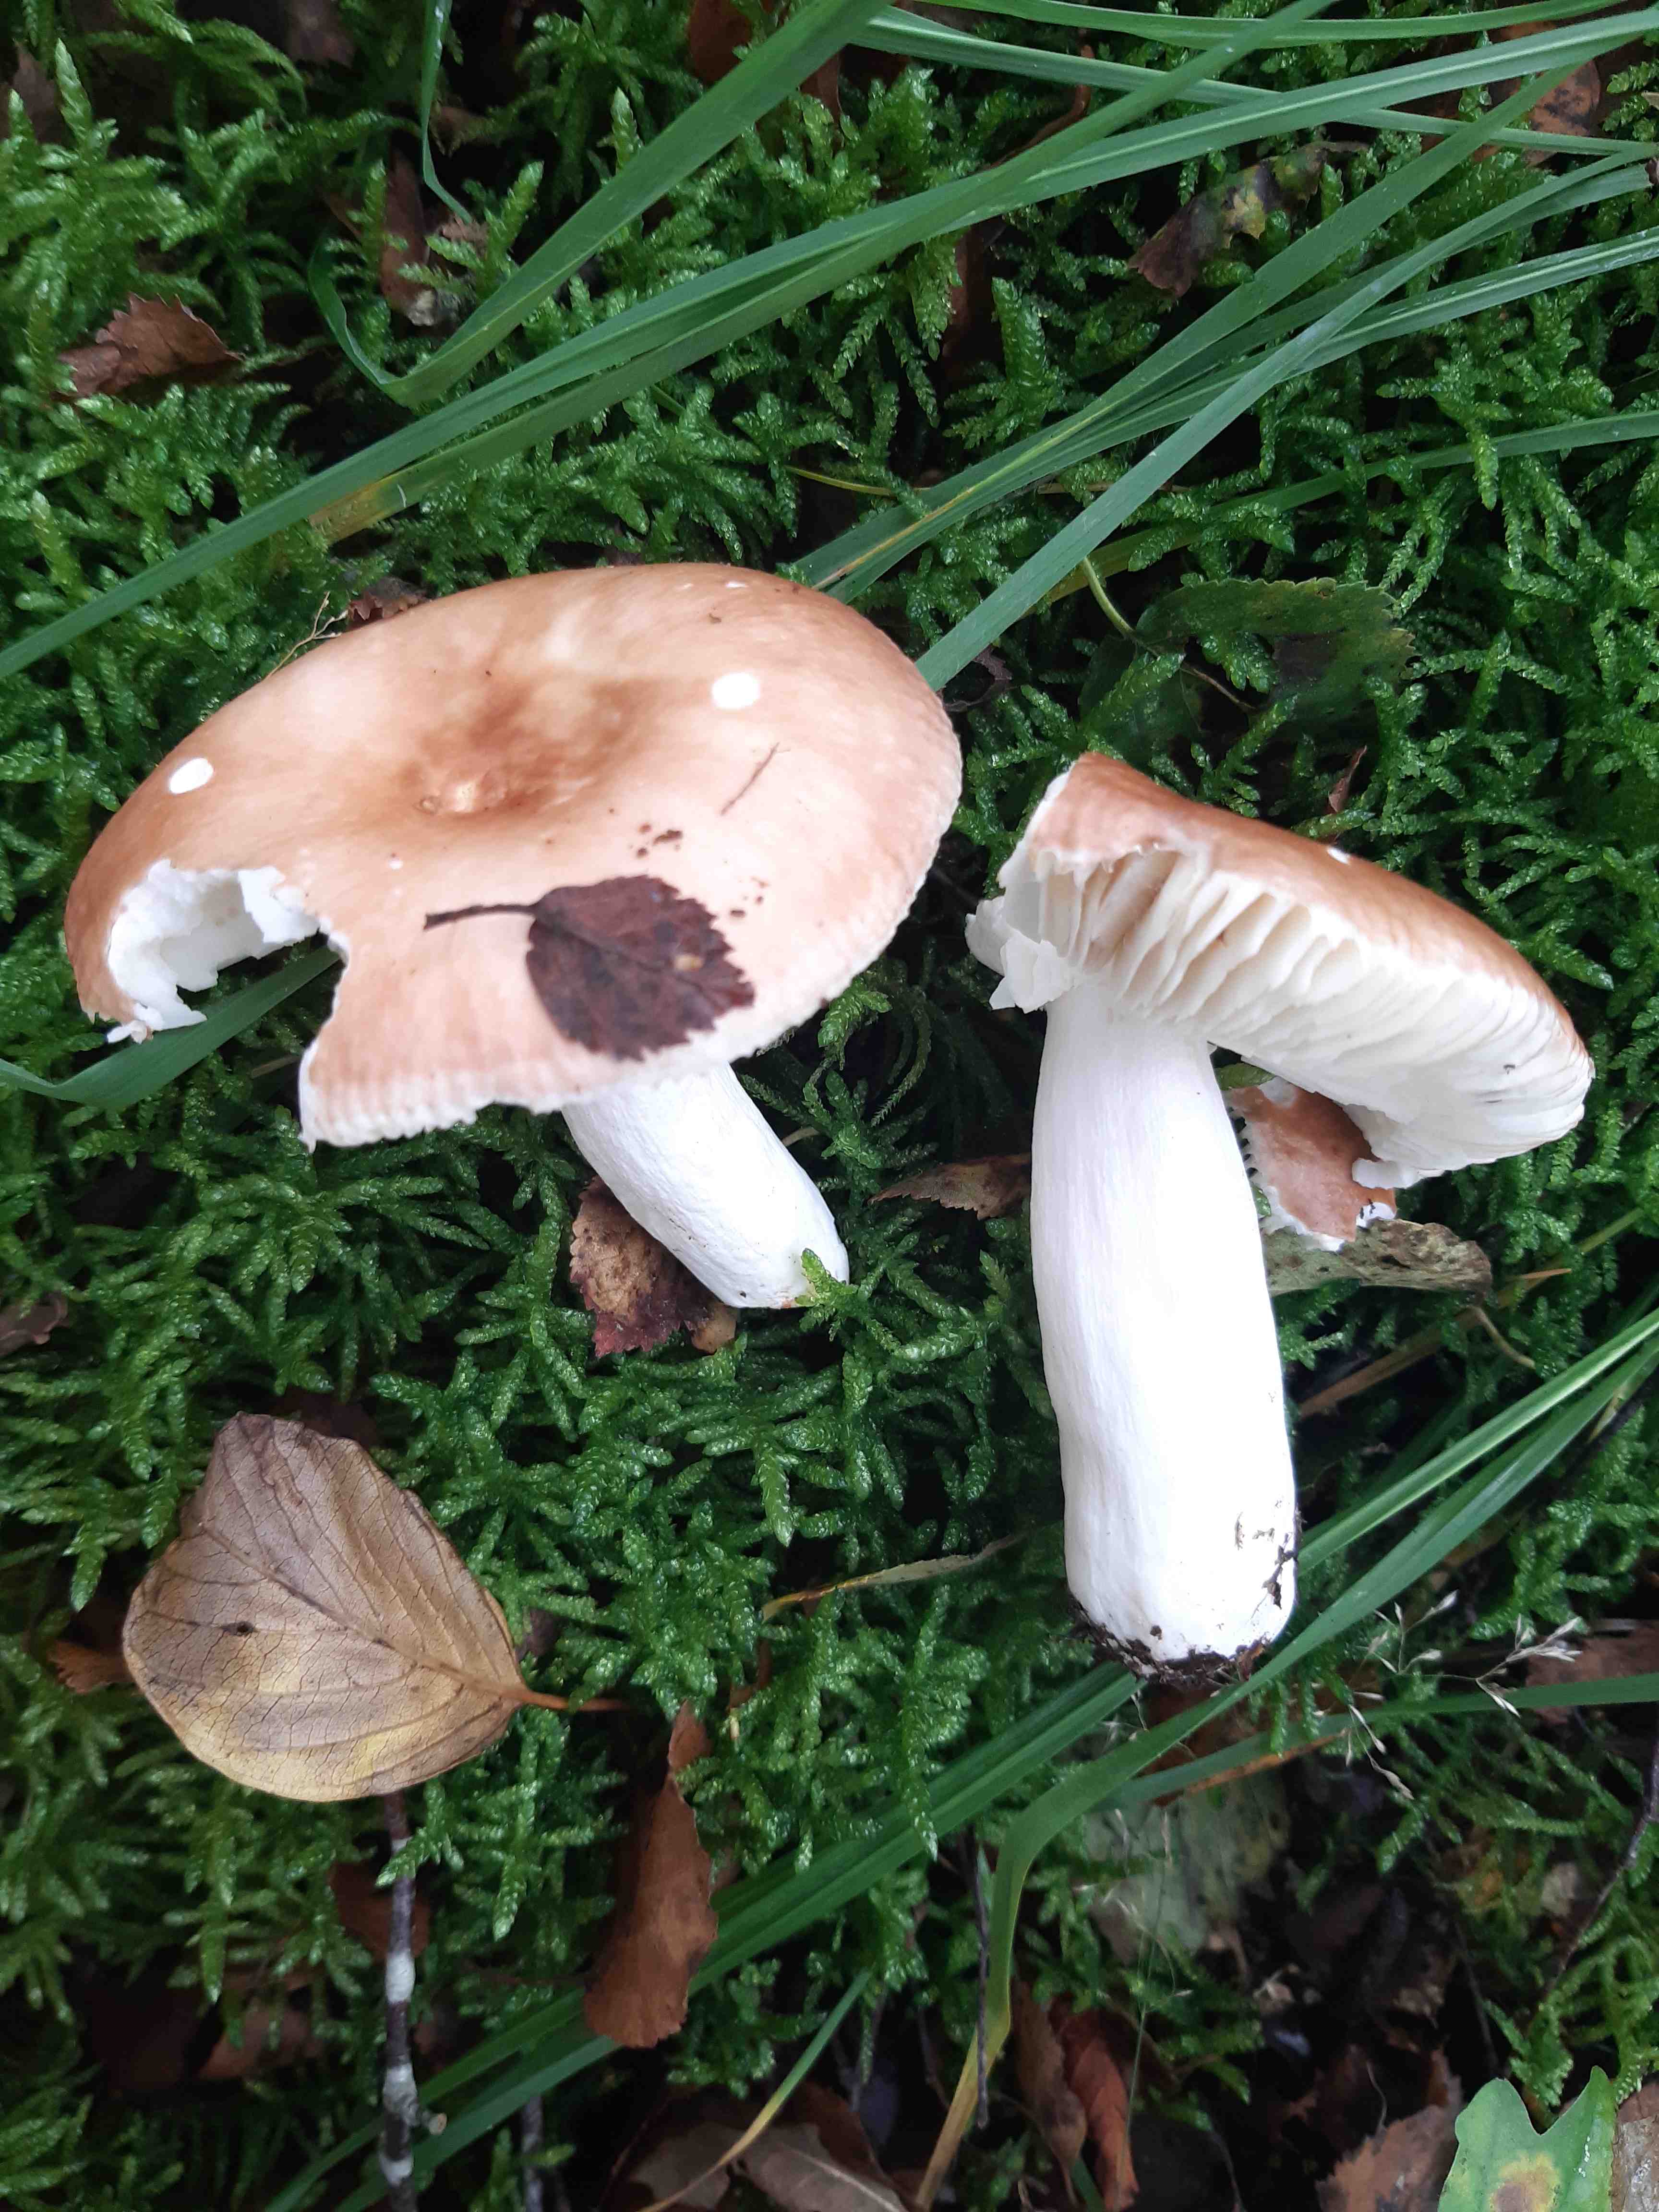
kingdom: Fungi
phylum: Basidiomycota
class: Agaricomycetes
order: Russulales
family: Russulaceae
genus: Russula
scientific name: Russula
